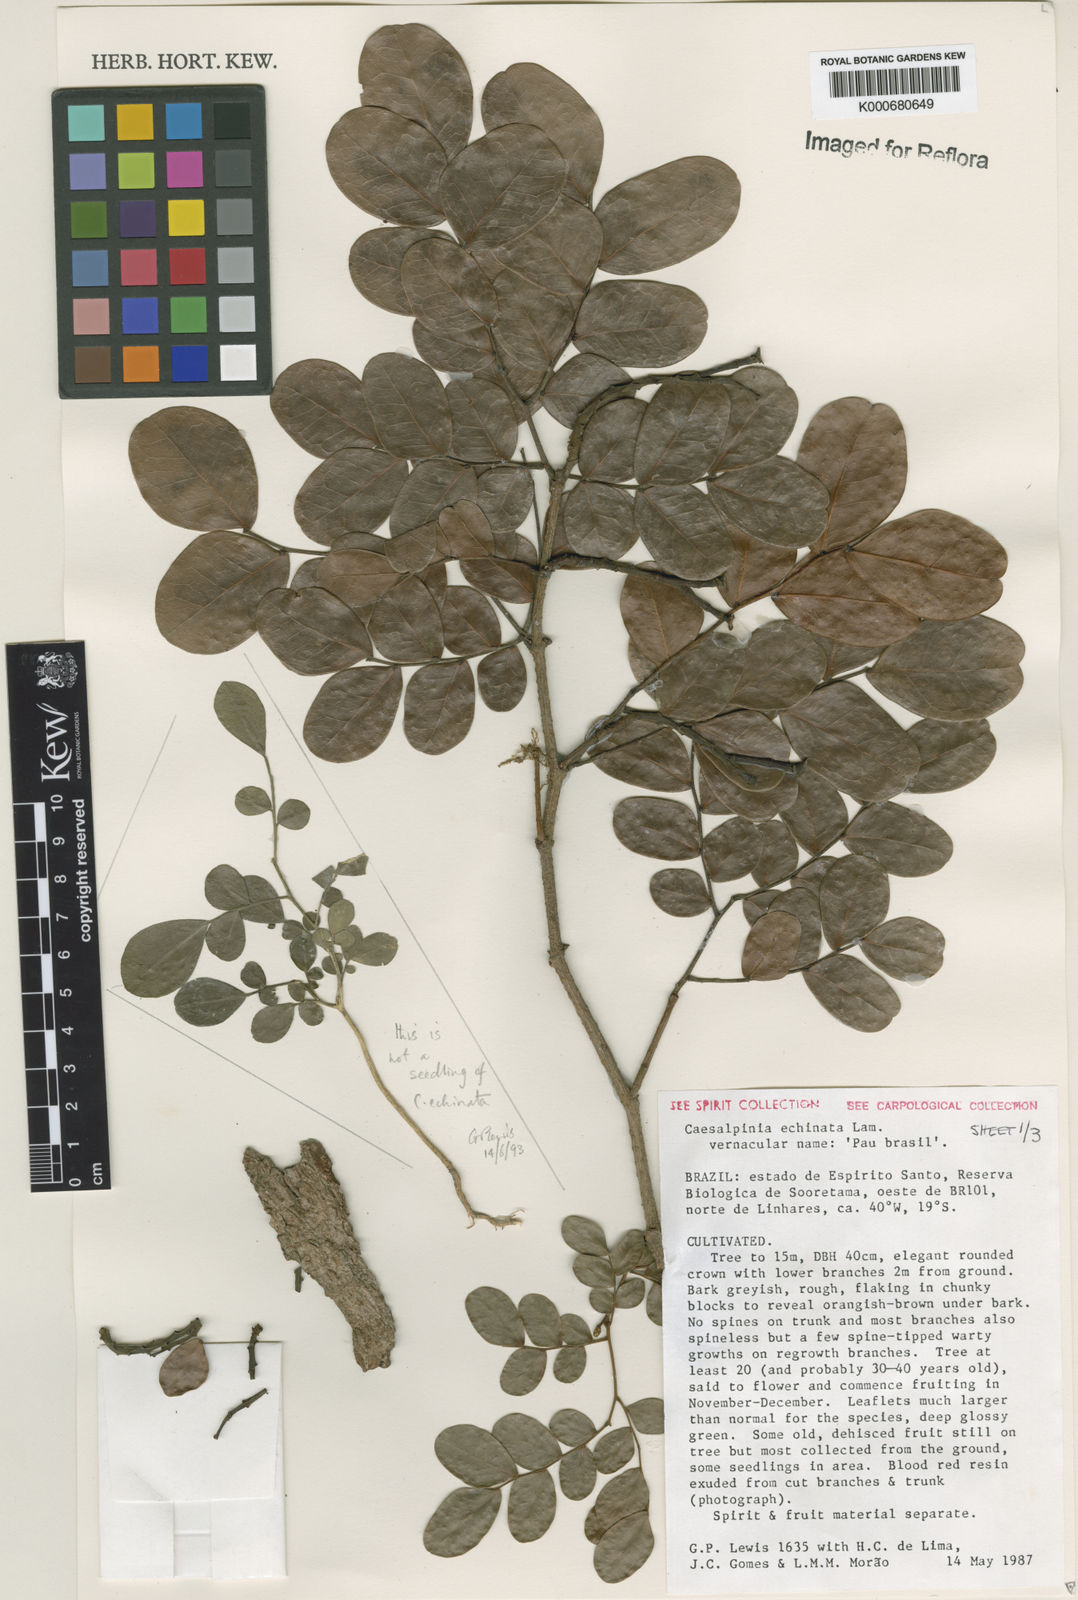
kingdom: Plantae
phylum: Tracheophyta
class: Magnoliopsida
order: Fabales
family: Fabaceae
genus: Paubrasilia
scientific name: Paubrasilia echinata
